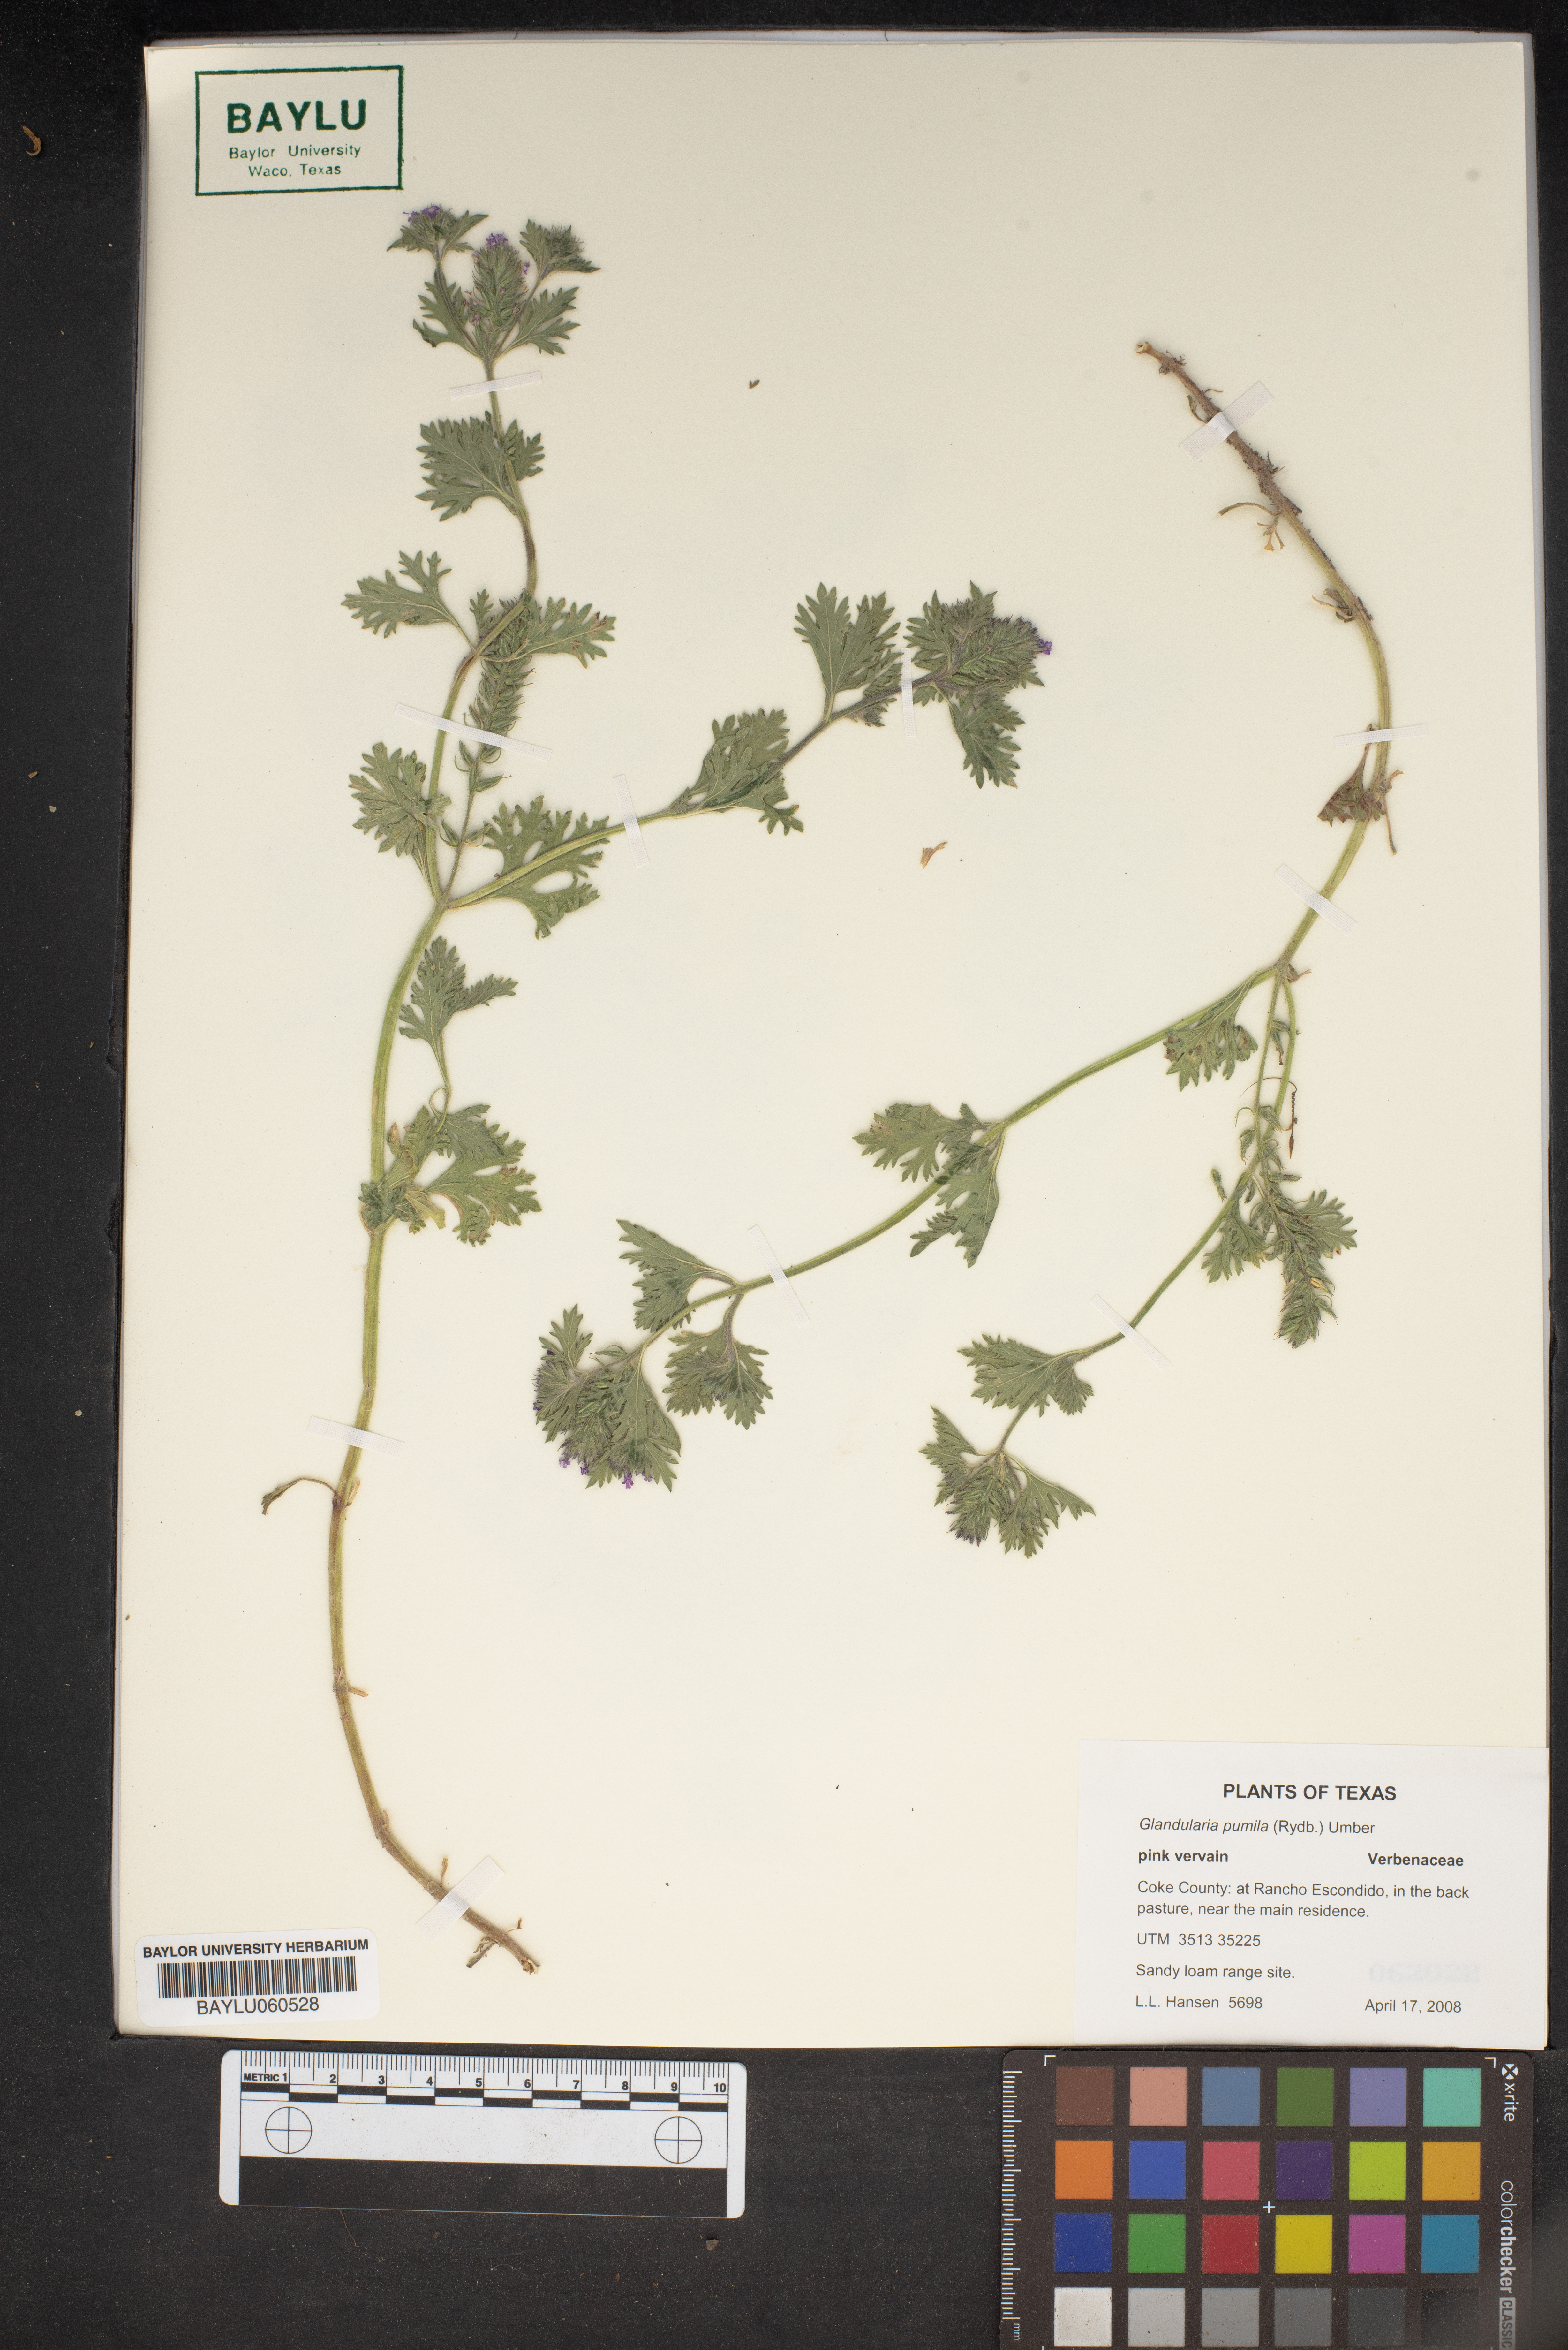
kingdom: Plantae
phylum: Tracheophyta
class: Magnoliopsida
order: Lamiales
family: Verbenaceae
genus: Verbena
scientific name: Verbena pumila
